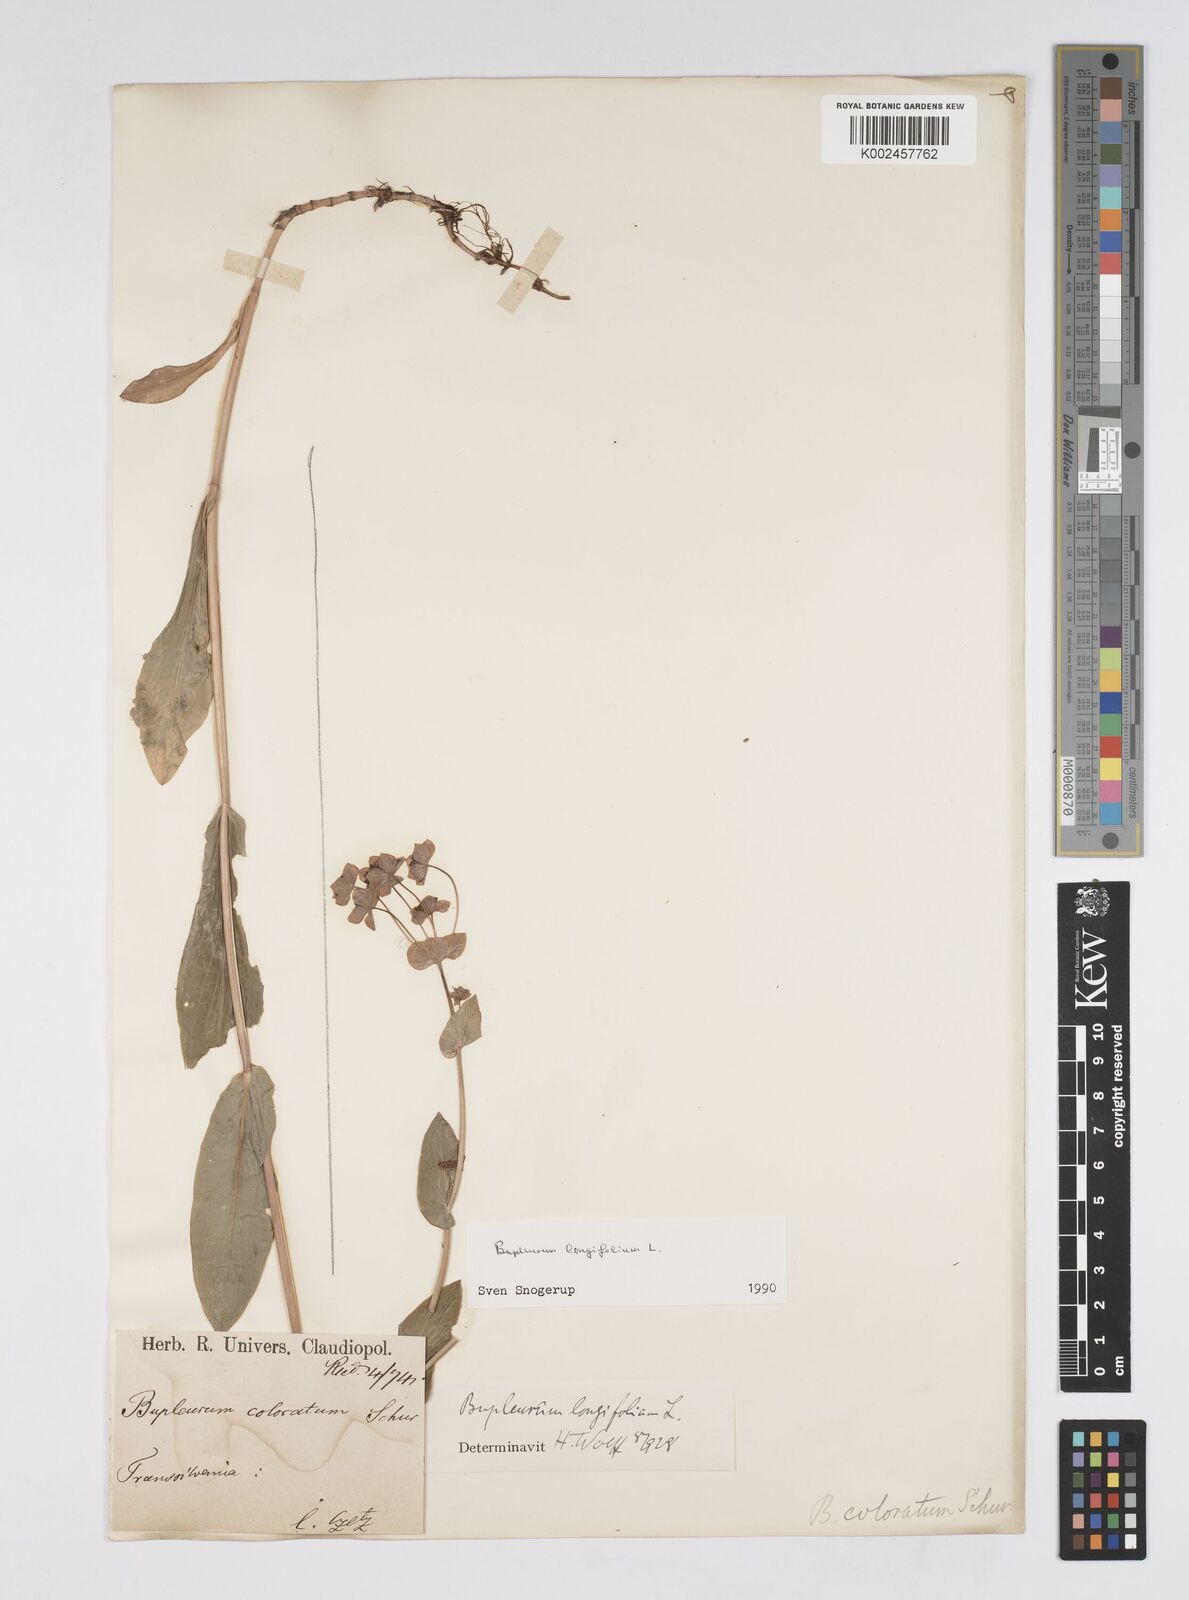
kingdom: Plantae
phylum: Tracheophyta
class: Magnoliopsida
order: Apiales
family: Apiaceae
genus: Bupleurum
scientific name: Bupleurum longifolium
